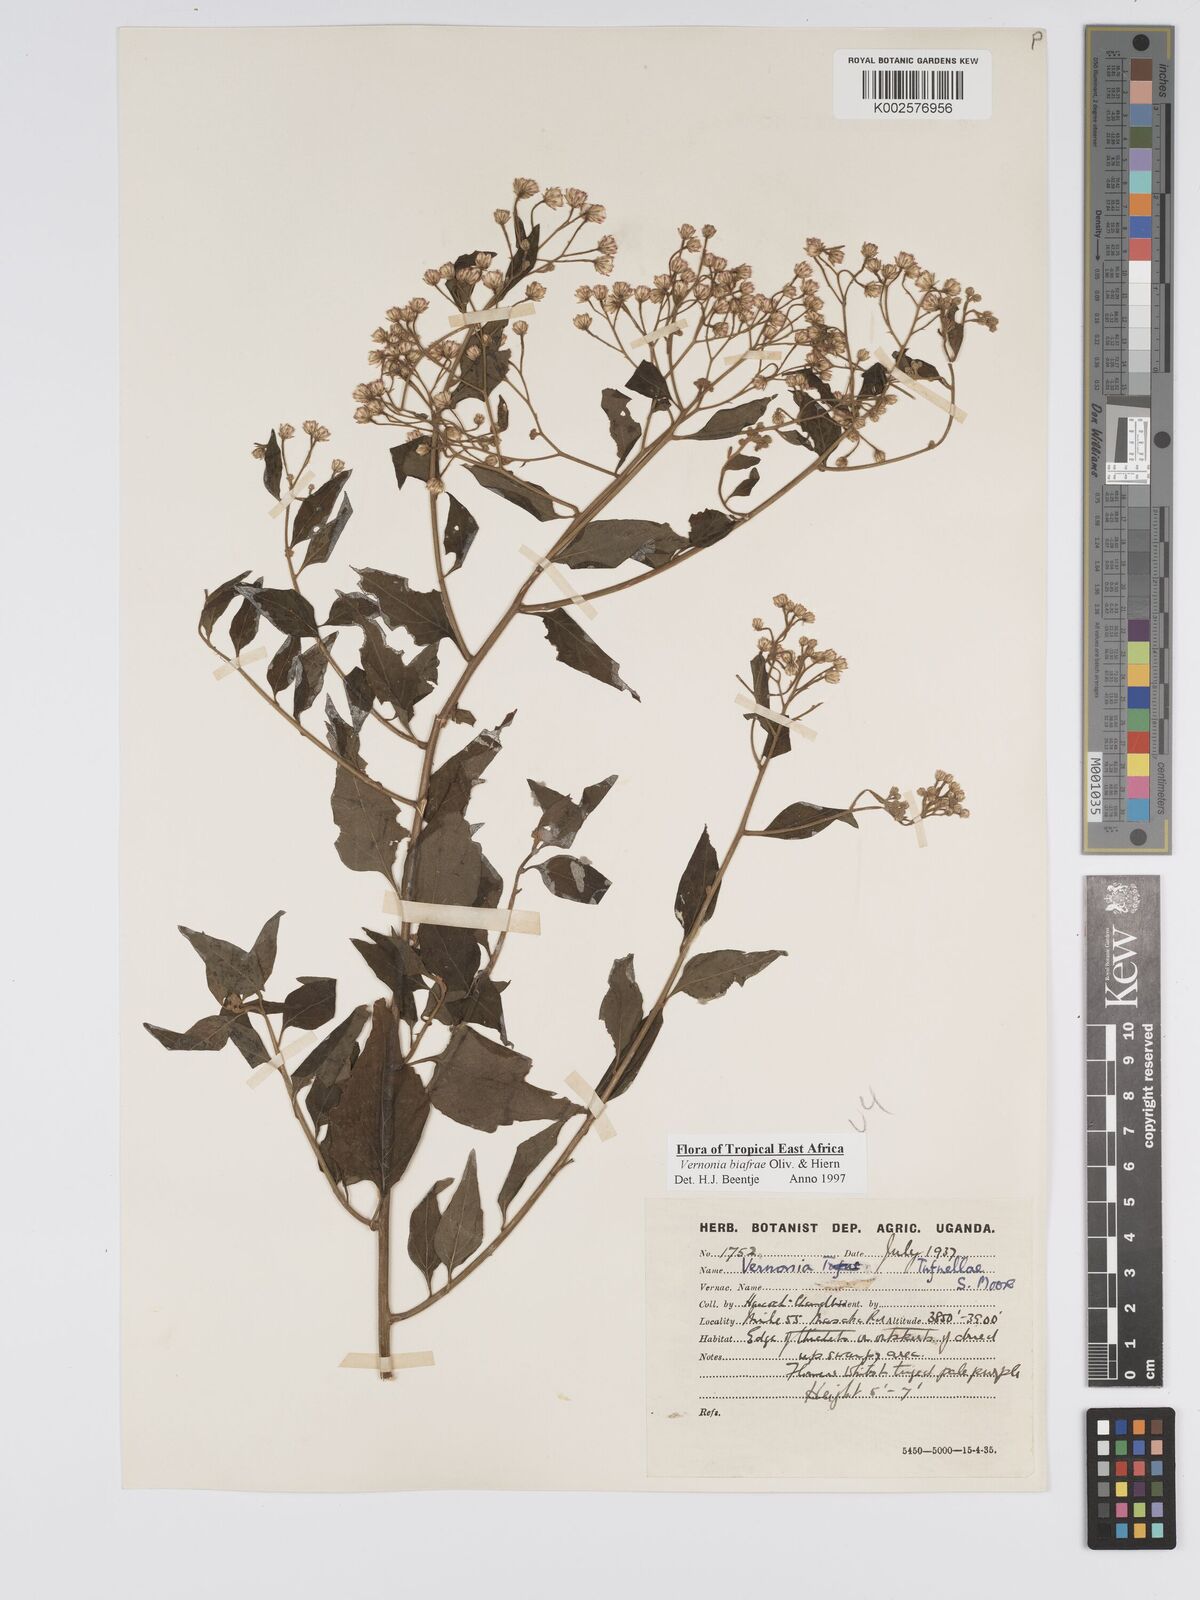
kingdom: Plantae
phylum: Tracheophyta
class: Magnoliopsida
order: Asterales
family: Asteraceae
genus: Distephanus
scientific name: Distephanus biafrae
